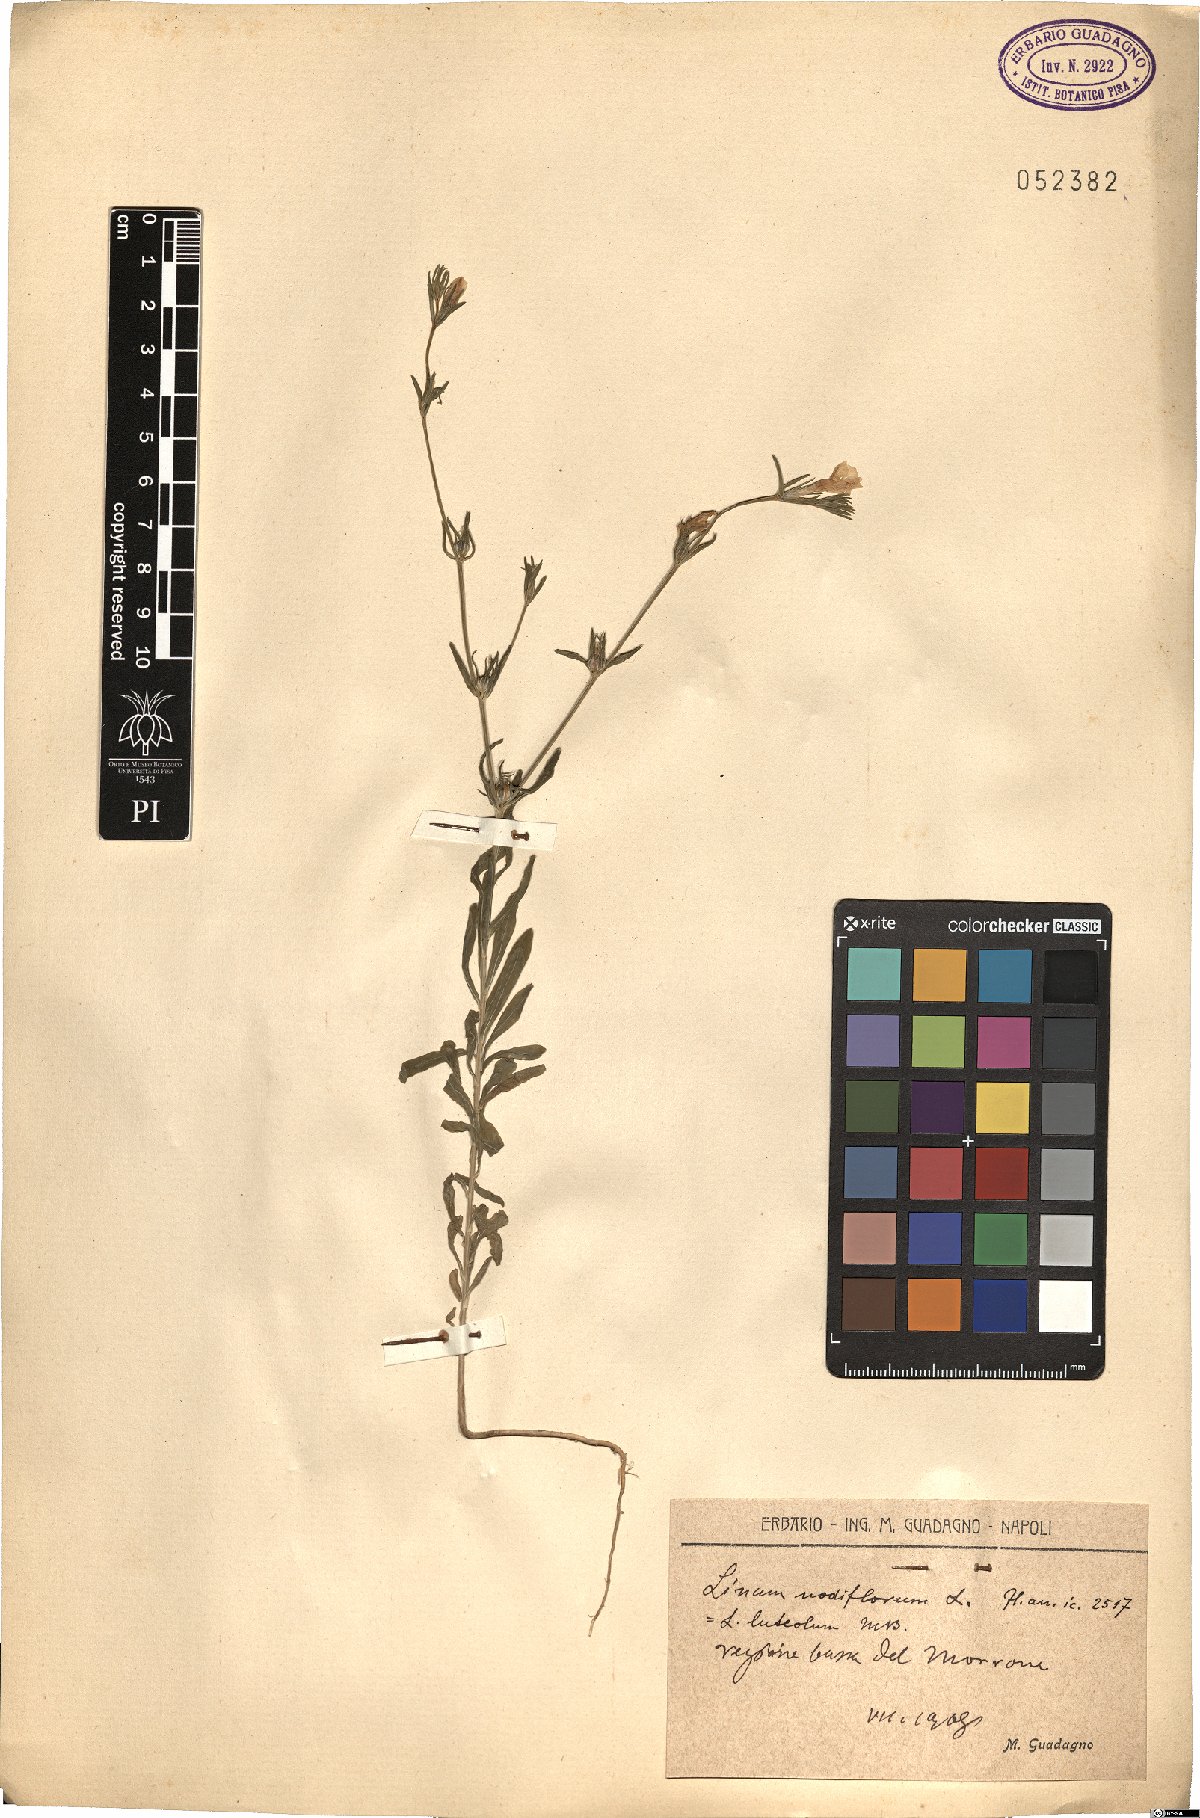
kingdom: Plantae
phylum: Tracheophyta
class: Magnoliopsida
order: Malpighiales
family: Linaceae
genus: Linum
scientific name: Linum nodiflorum
